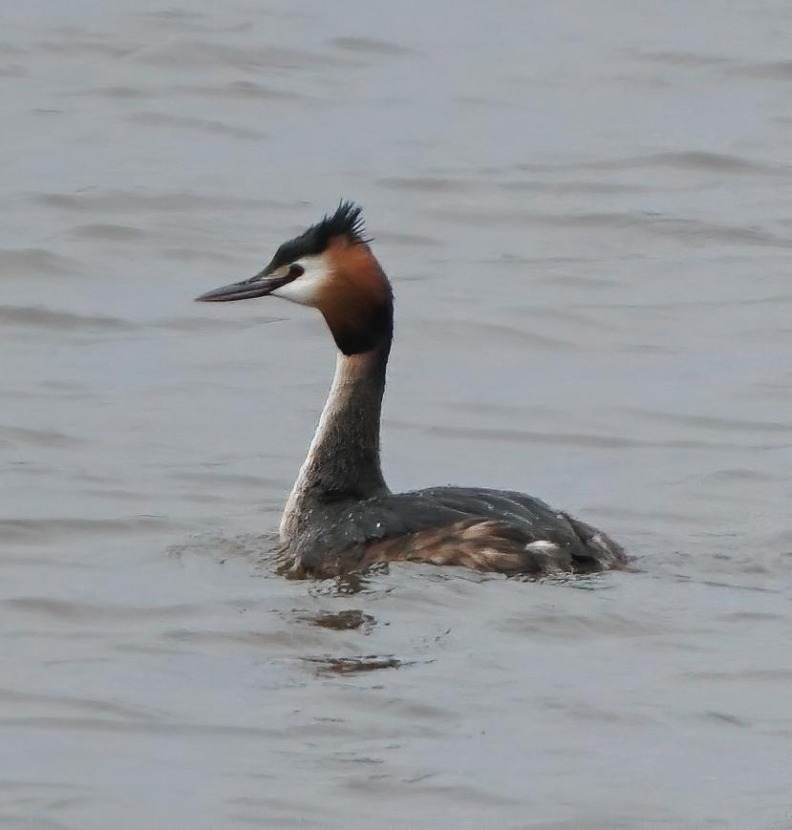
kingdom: Animalia
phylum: Chordata
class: Aves
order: Podicipediformes
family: Podicipedidae
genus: Podiceps
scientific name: Podiceps cristatus
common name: Toppet lappedykker
